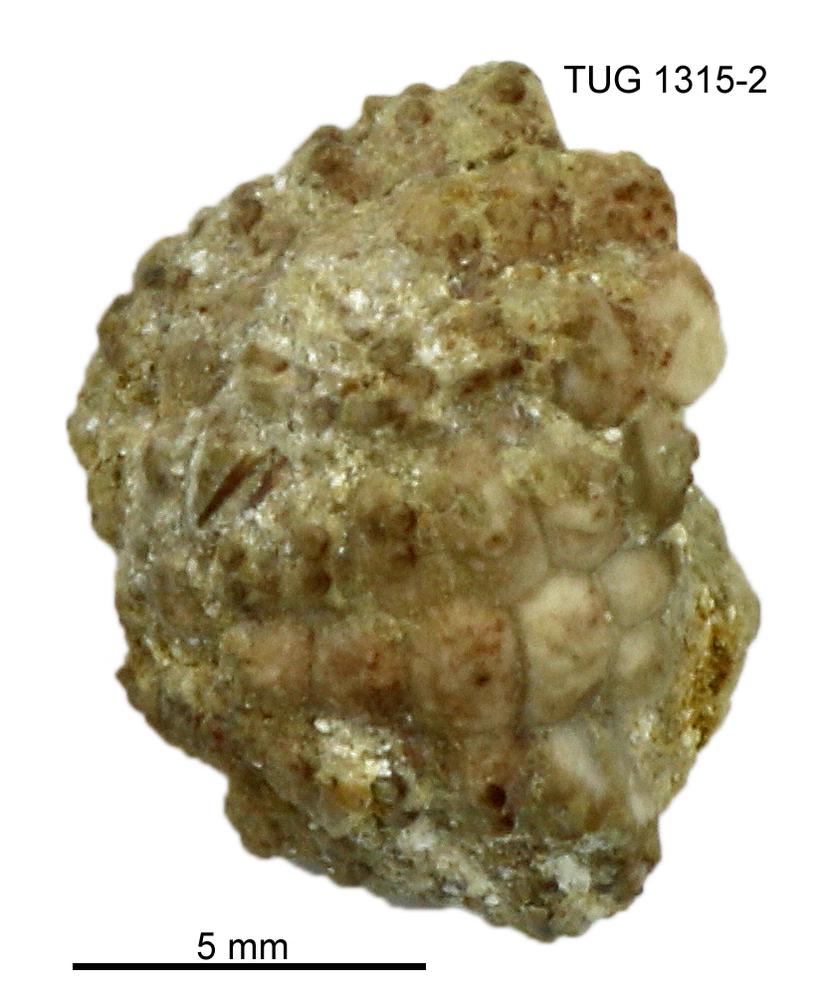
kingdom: Animalia
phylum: Echinodermata
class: Echinoidea
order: Bothriocidaroida
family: Bothriocidaridae
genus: Bothriocidaris
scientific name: Bothriocidaris
